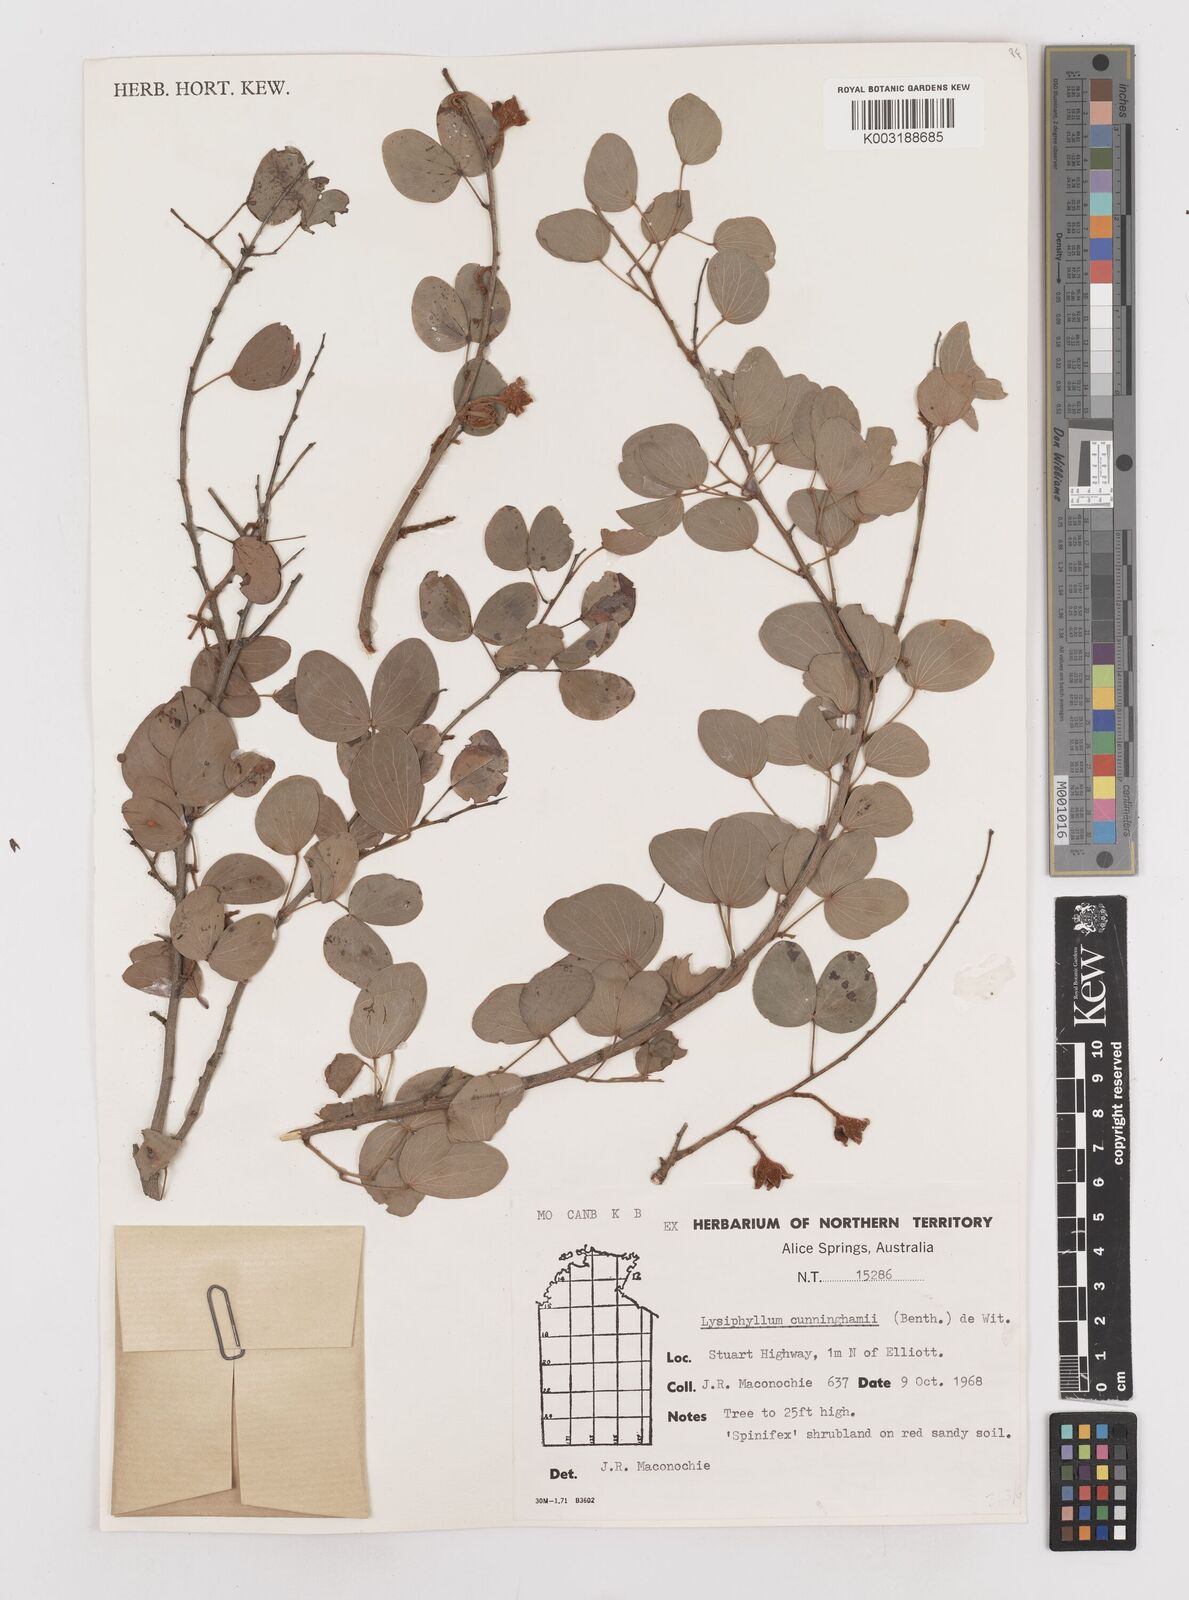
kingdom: Plantae
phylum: Tracheophyta
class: Magnoliopsida
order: Fabales
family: Fabaceae
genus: Lysiphyllum
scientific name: Lysiphyllum cunninghamii
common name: Kimberley bauhinia
